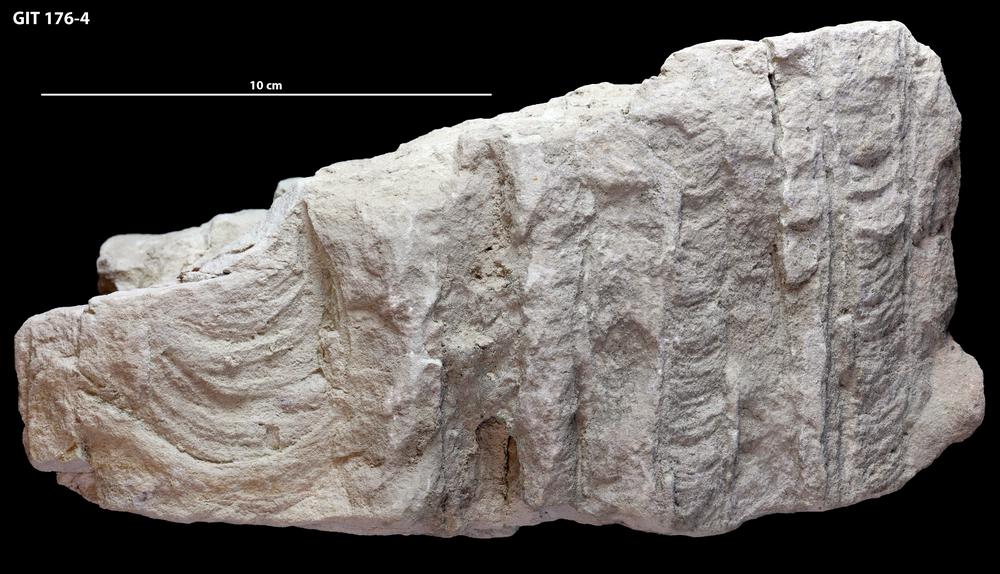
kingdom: Animalia
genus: Diplocraterion
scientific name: Diplocraterion parallelum
